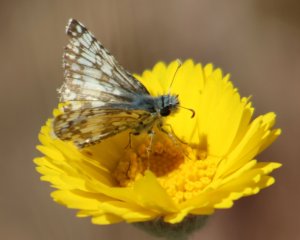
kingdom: Animalia
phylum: Arthropoda
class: Insecta
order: Lepidoptera
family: Hesperiidae
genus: Pyrgus
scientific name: Pyrgus communis
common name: White Checkered-Skipper
